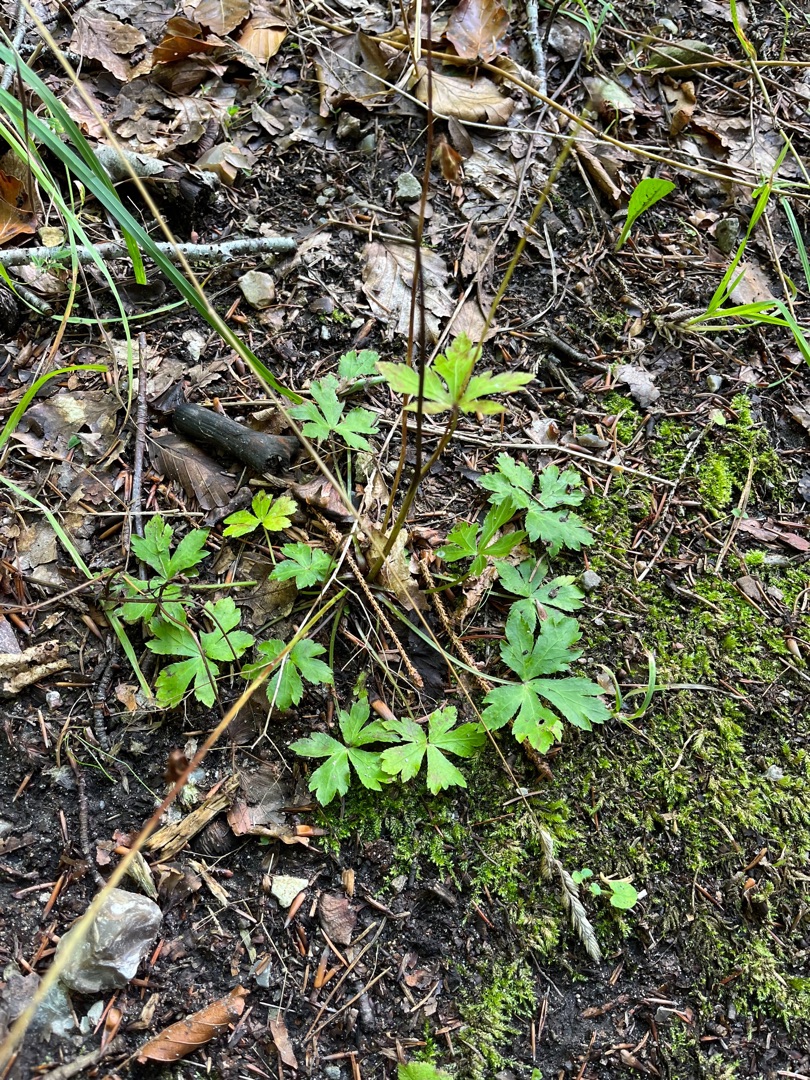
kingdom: Plantae
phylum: Tracheophyta
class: Magnoliopsida
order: Apiales
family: Apiaceae
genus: Sanicula
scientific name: Sanicula europaea
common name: Sanikel
